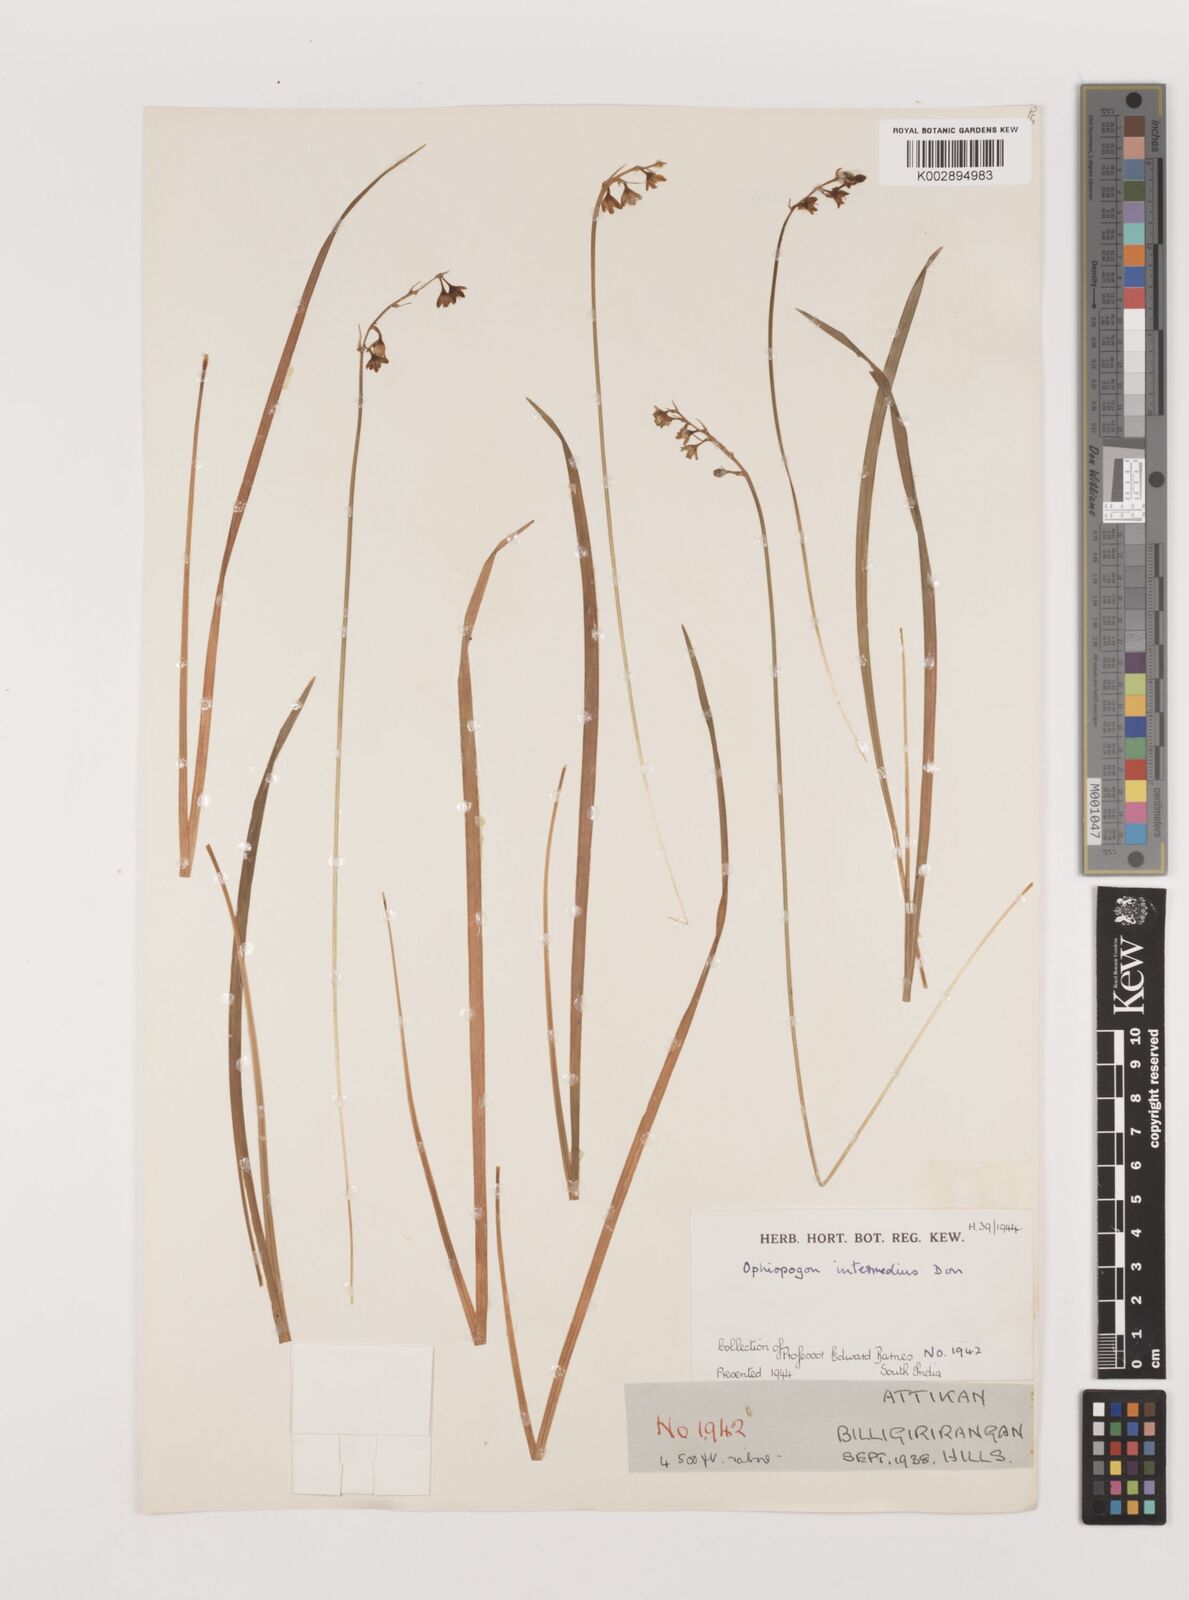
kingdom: Plantae
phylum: Tracheophyta
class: Liliopsida
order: Asparagales
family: Asparagaceae
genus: Ophiopogon
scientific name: Ophiopogon intermedius
